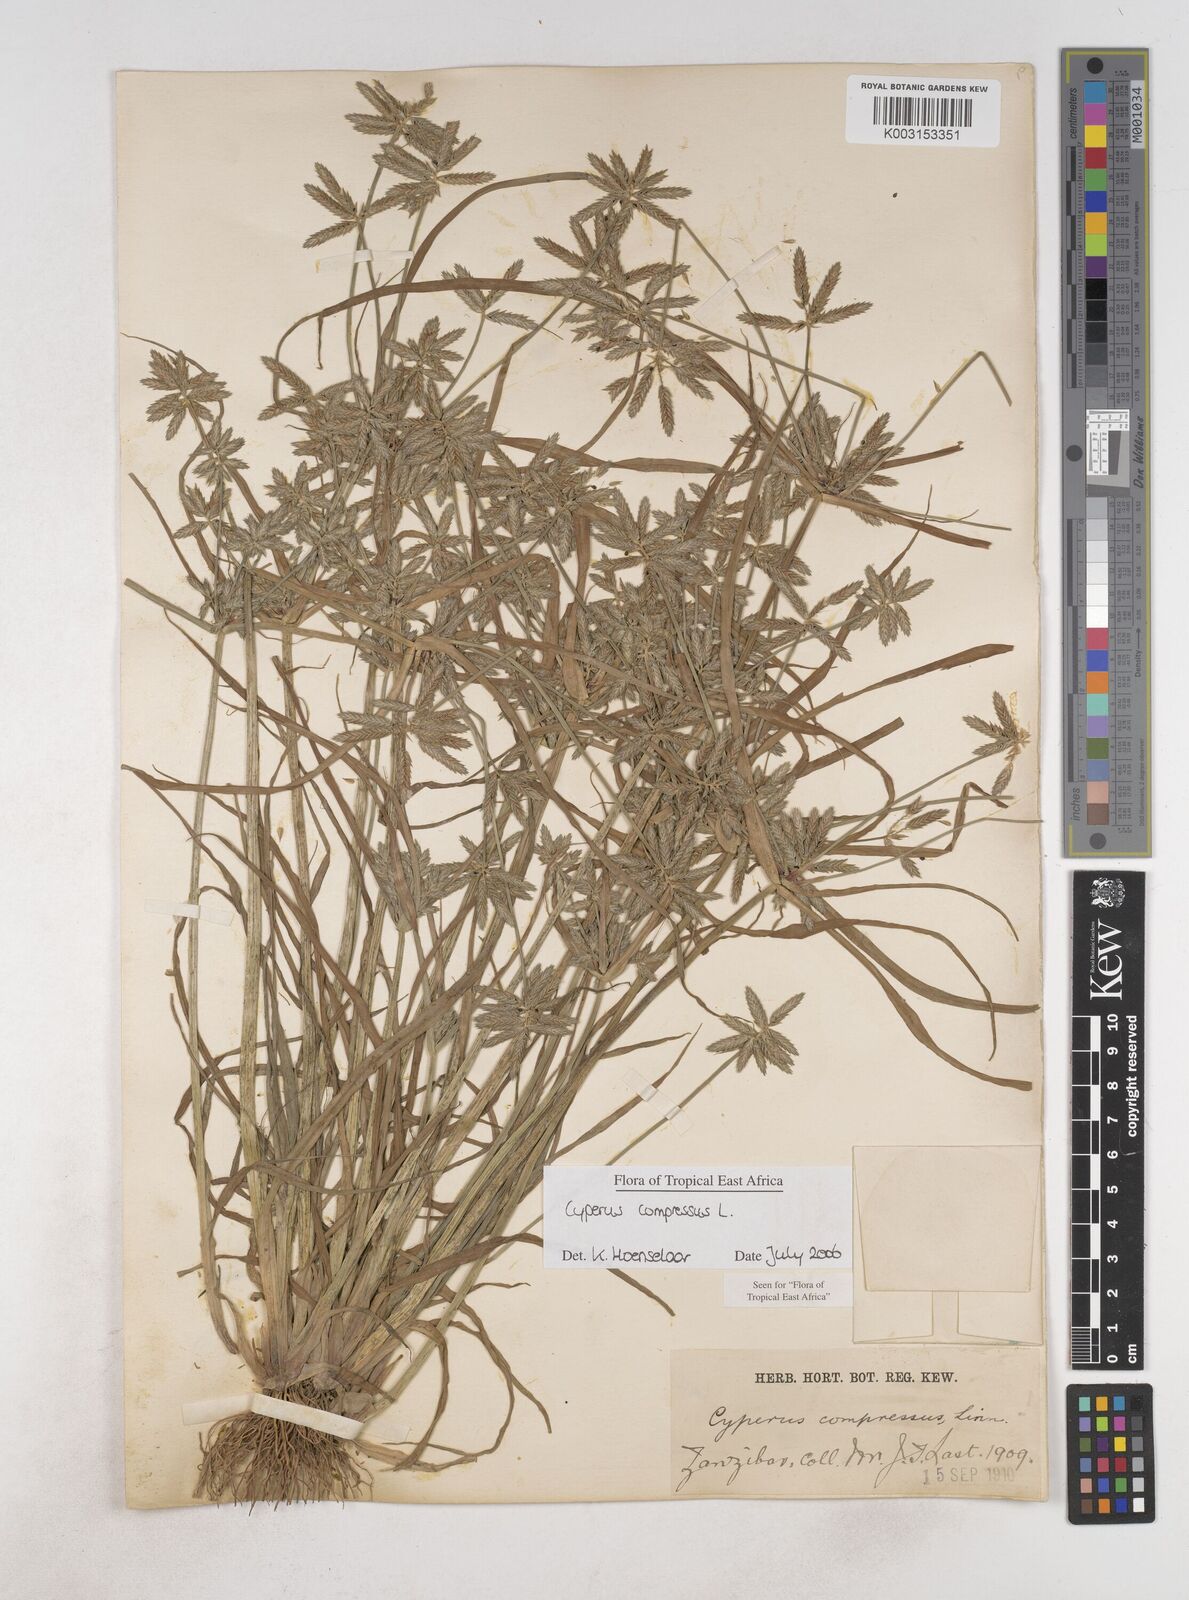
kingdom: Plantae
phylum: Tracheophyta
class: Liliopsida
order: Poales
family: Cyperaceae
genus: Cyperus
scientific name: Cyperus compressus
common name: Poorland flatsedge
